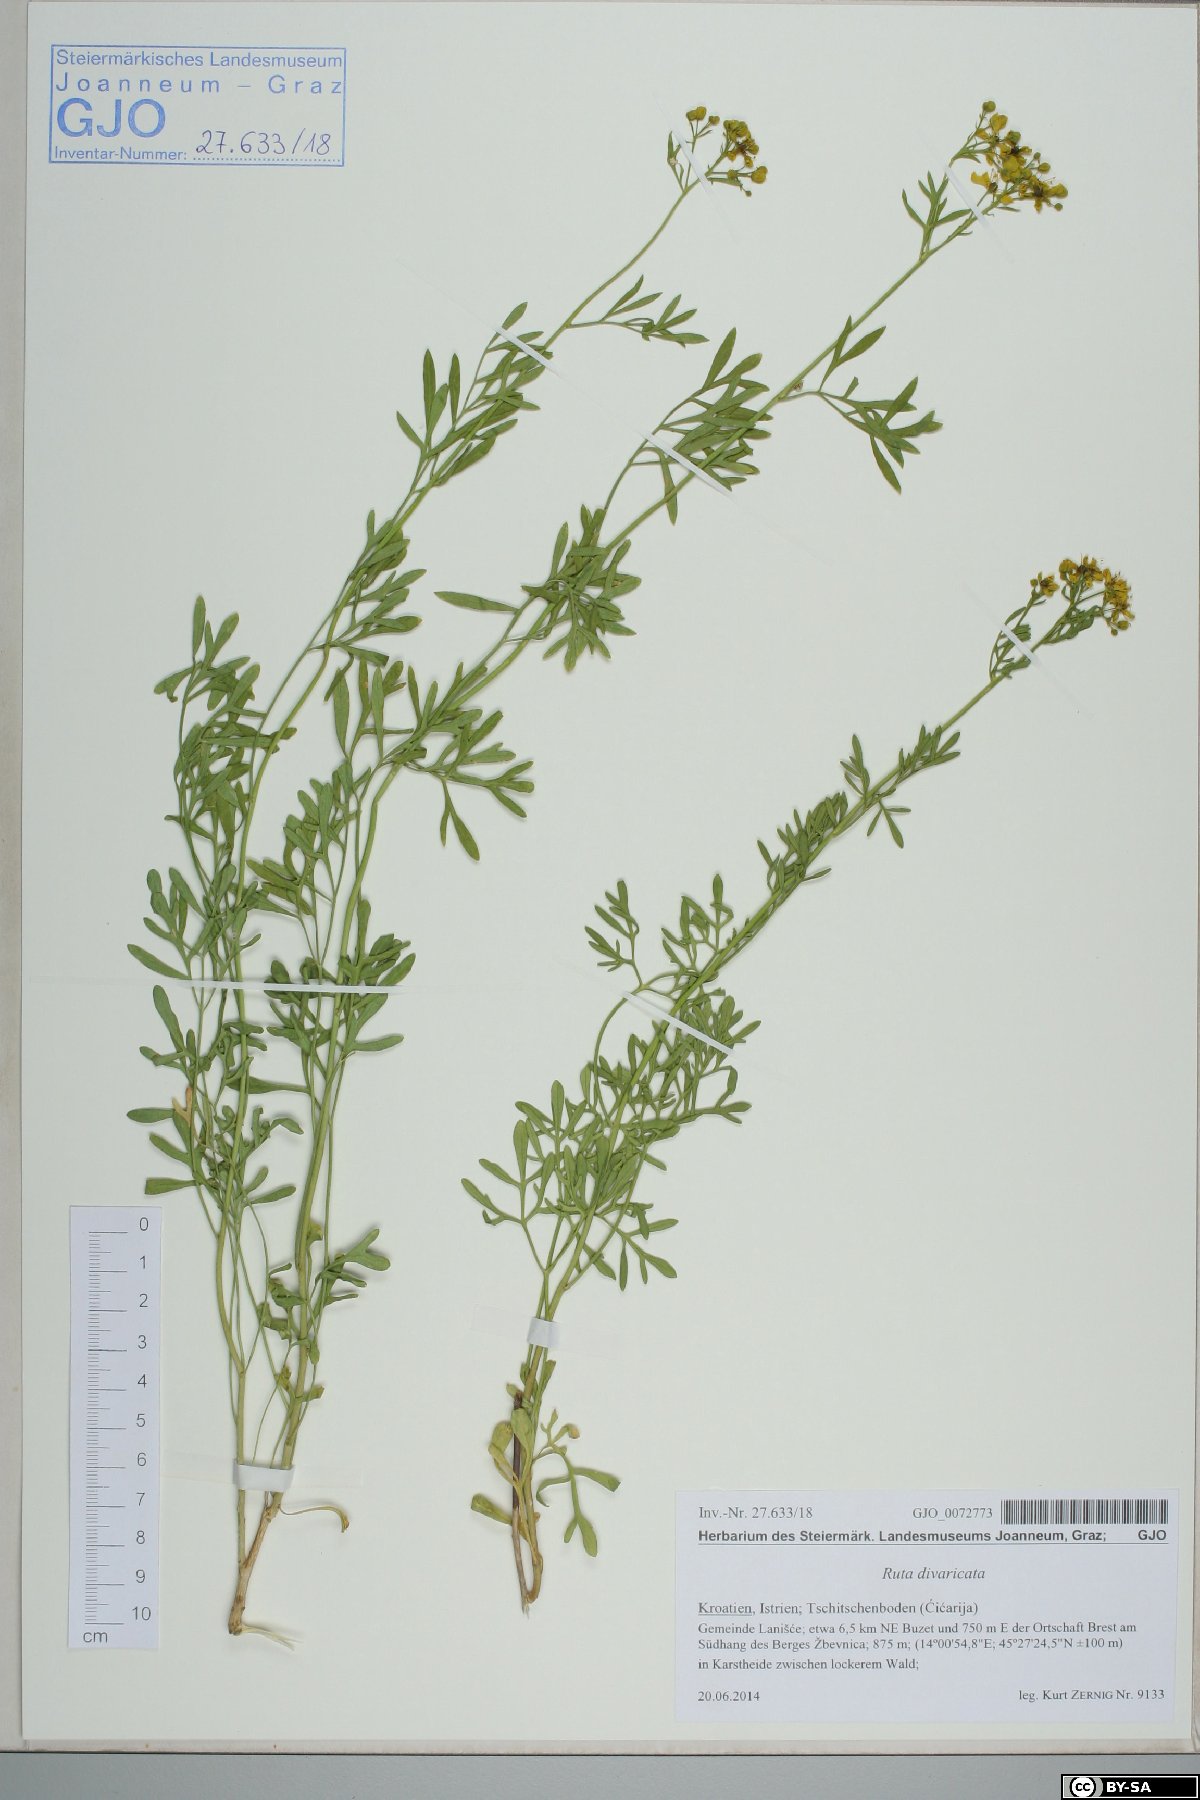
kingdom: Plantae
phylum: Tracheophyta
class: Magnoliopsida
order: Sapindales
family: Rutaceae
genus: Ruta
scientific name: Ruta graveolens
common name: Common rue
